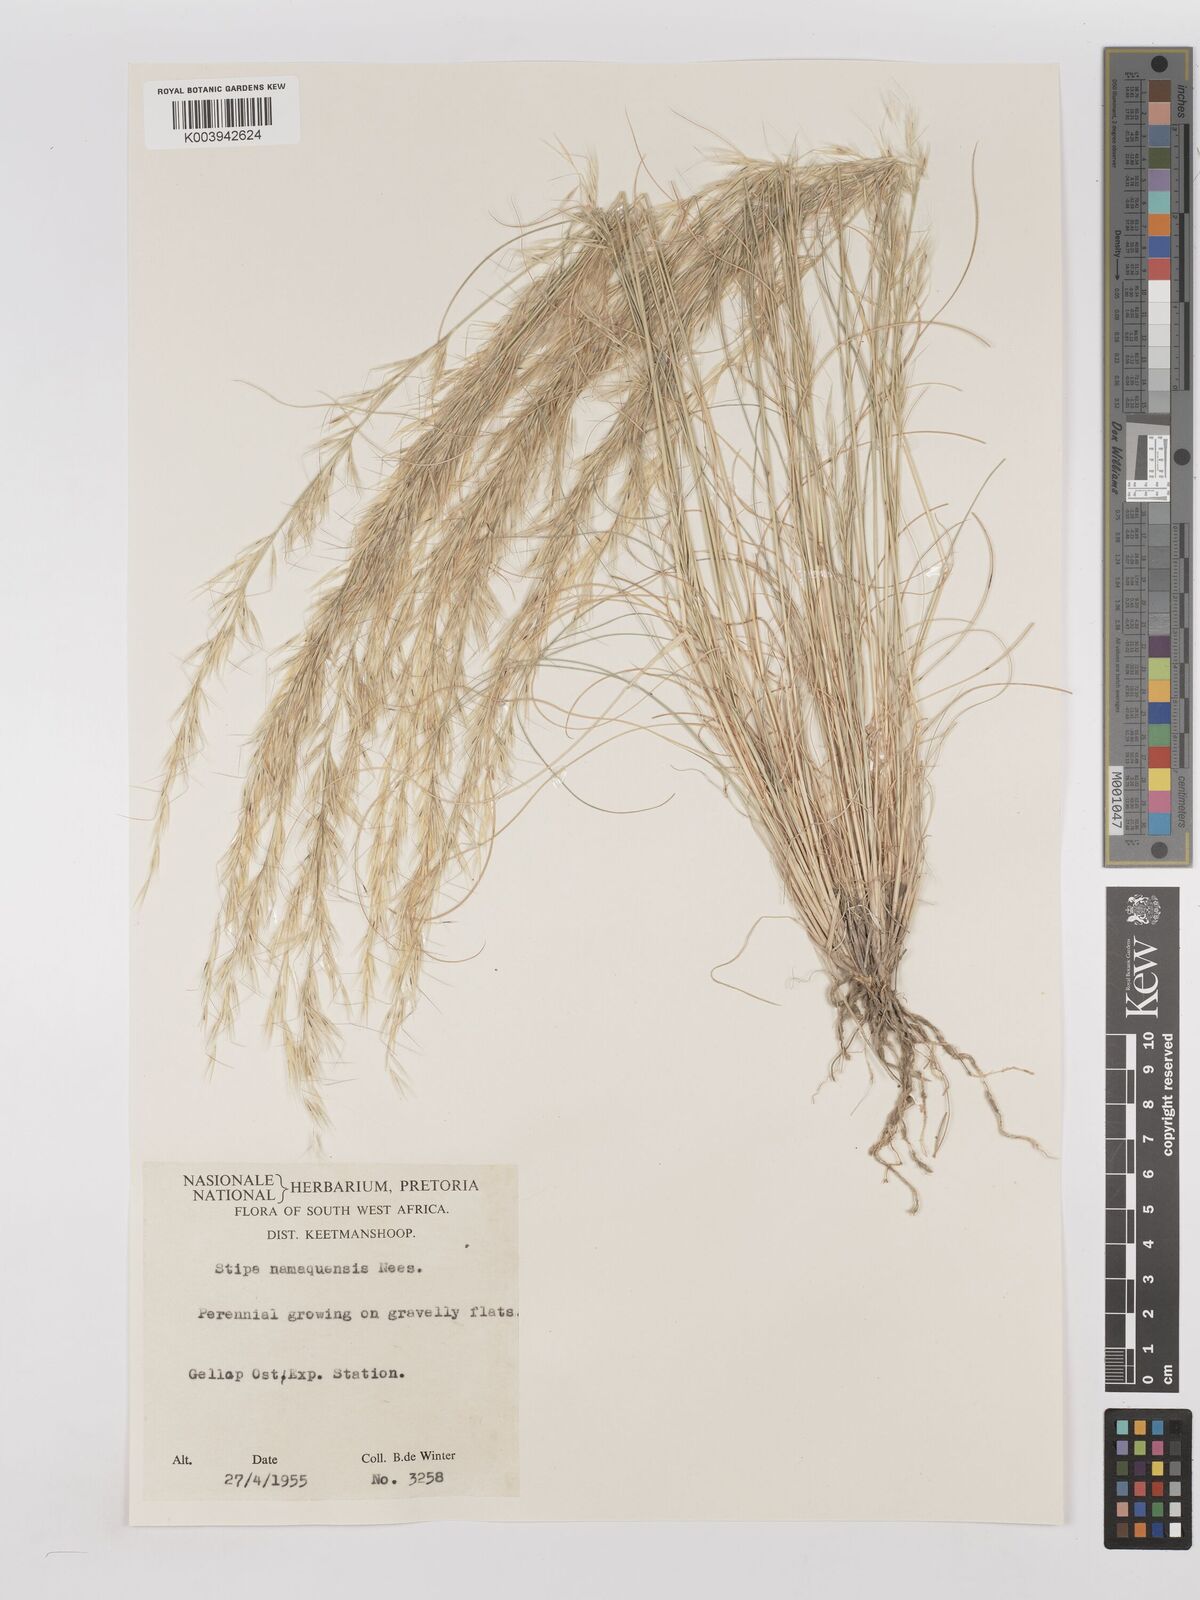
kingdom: Plantae
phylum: Tracheophyta
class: Liliopsida
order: Poales
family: Poaceae
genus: Stipagrostis
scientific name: Stipagrostis anomala
